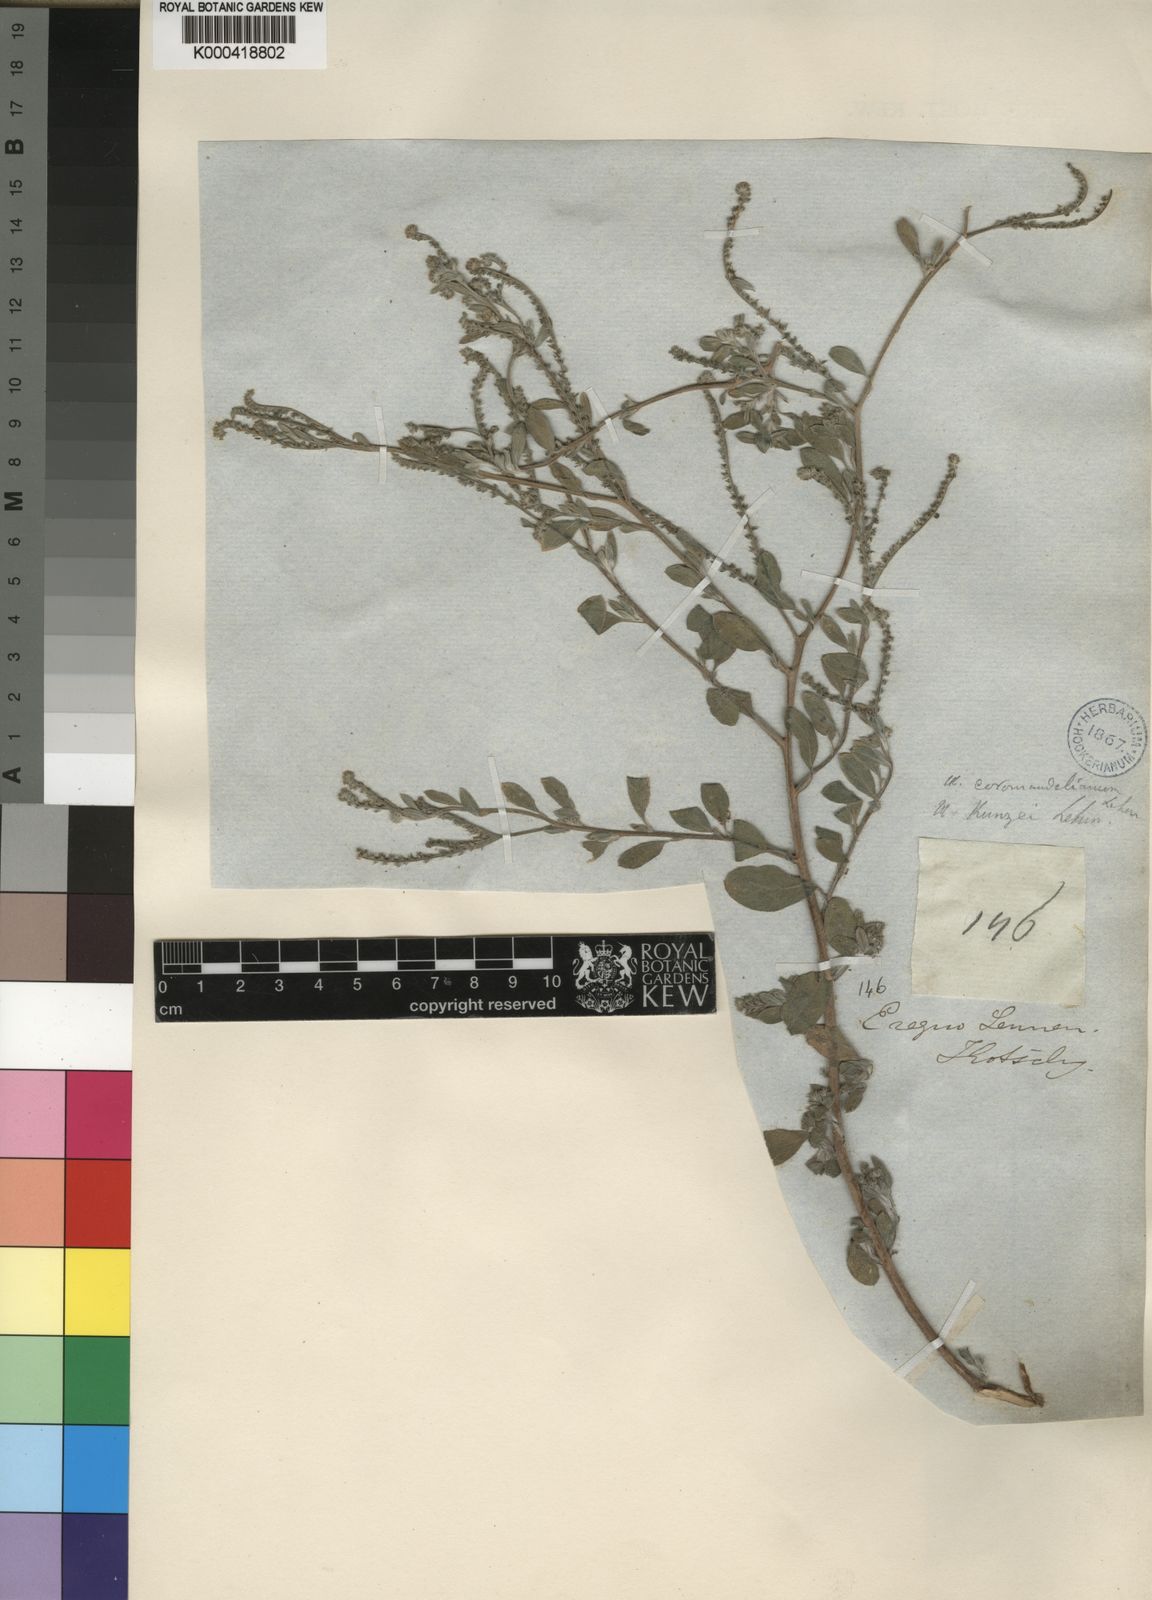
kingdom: Plantae
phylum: Tracheophyta
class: Magnoliopsida
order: Boraginales
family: Heliotropiaceae
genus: Euploca
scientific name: Euploca ovalifolia
